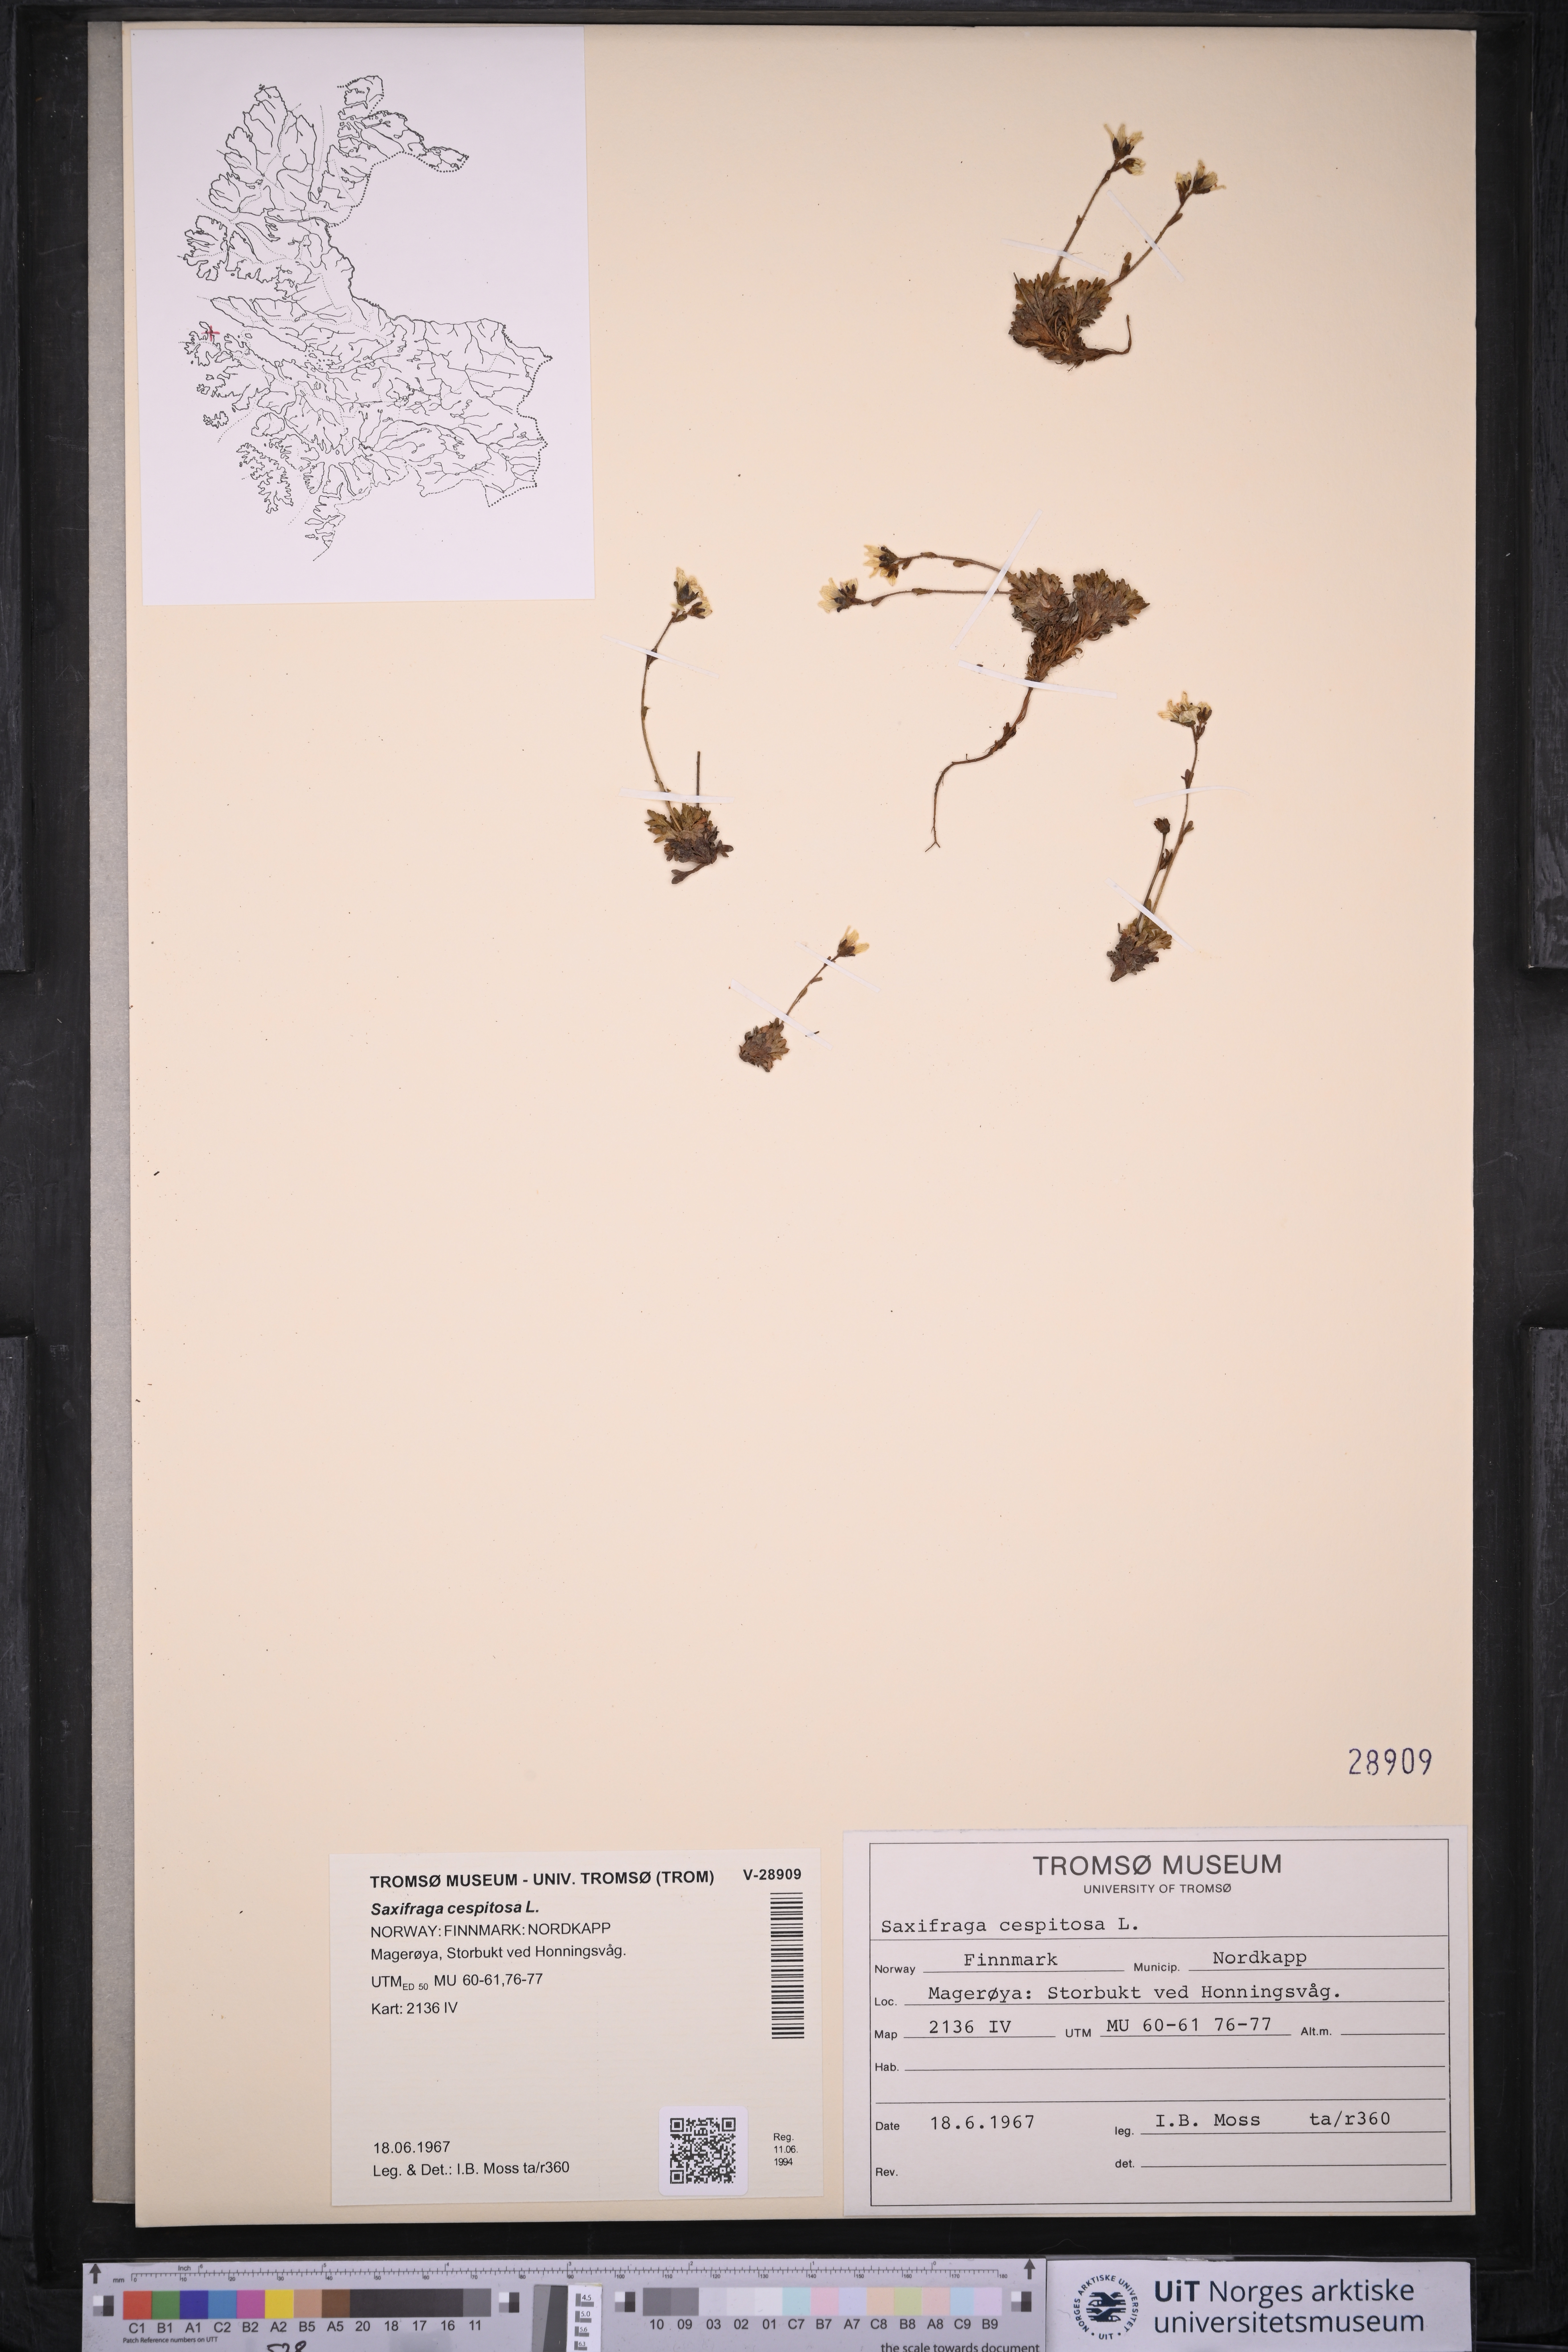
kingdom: Plantae
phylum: Tracheophyta
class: Magnoliopsida
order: Saxifragales
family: Saxifragaceae
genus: Saxifraga
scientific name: Saxifraga cespitosa
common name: Tufted saxifrage
